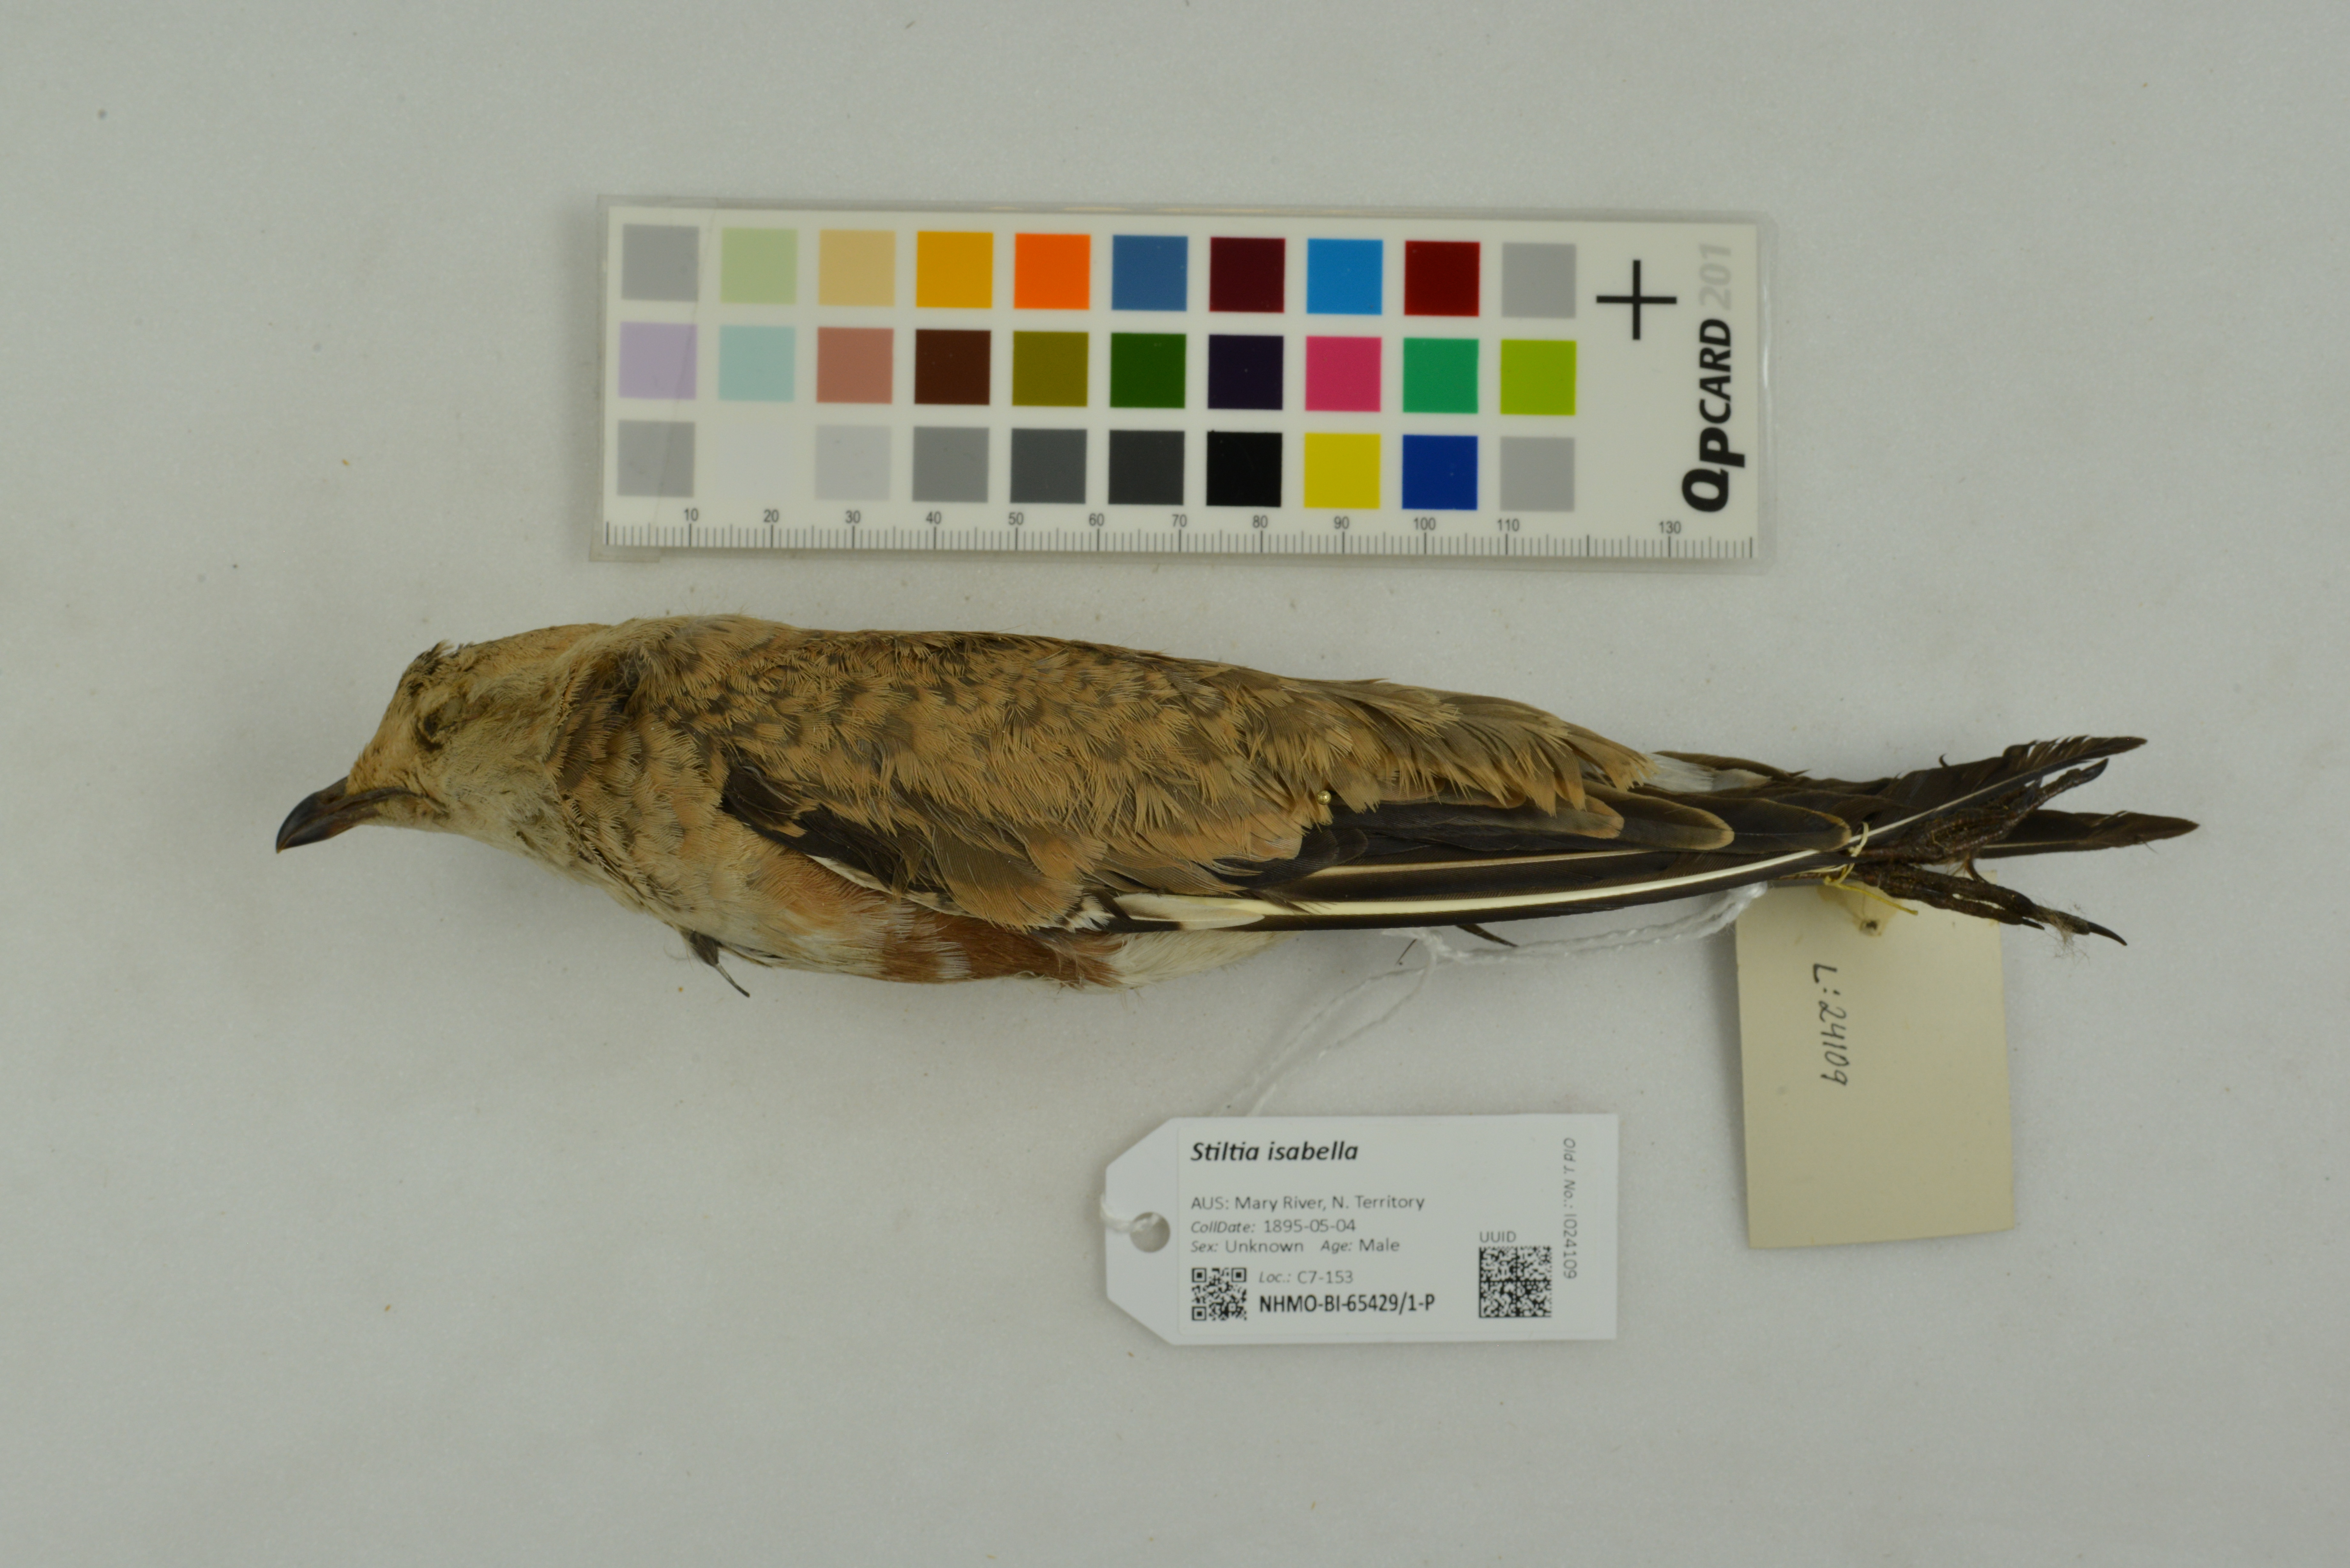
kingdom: Animalia
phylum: Chordata
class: Aves
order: Charadriiformes
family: Glareolidae
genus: Stiltia
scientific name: Stiltia isabella
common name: Australian pratincole
